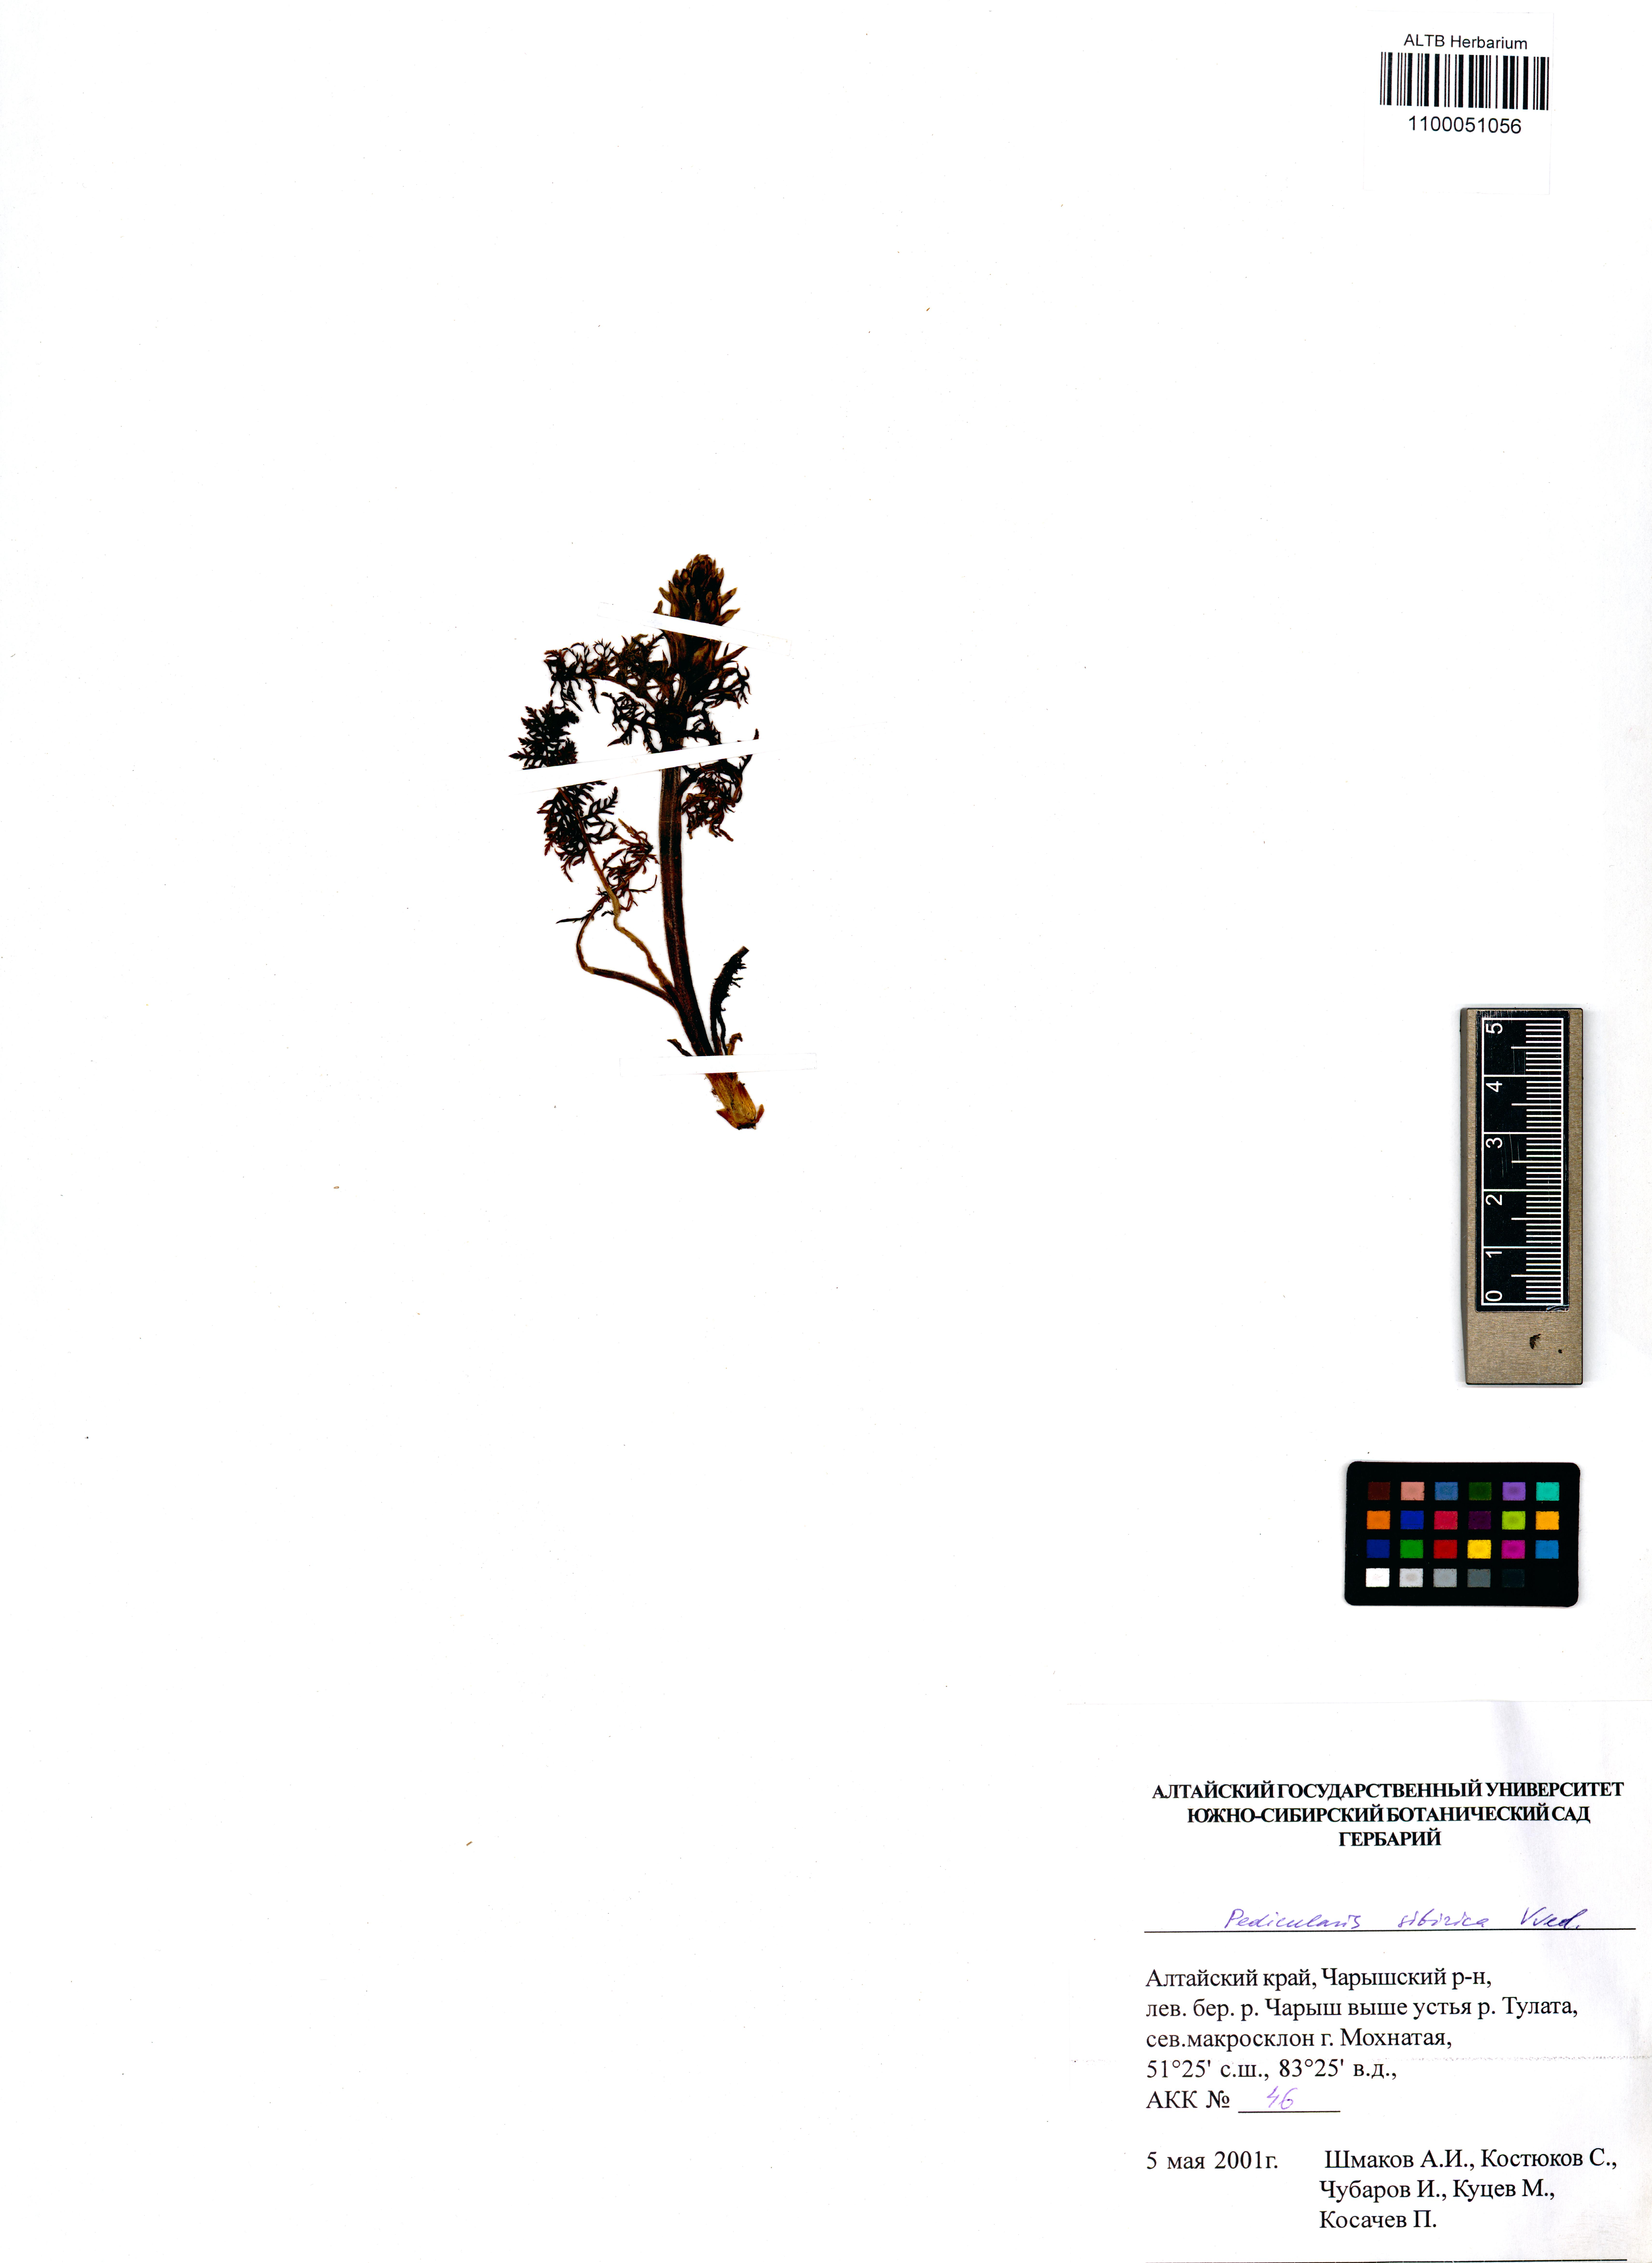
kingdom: Plantae
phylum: Tracheophyta
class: Magnoliopsida
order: Lamiales
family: Orobanchaceae
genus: Pedicularis
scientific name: Pedicularis sibirica
